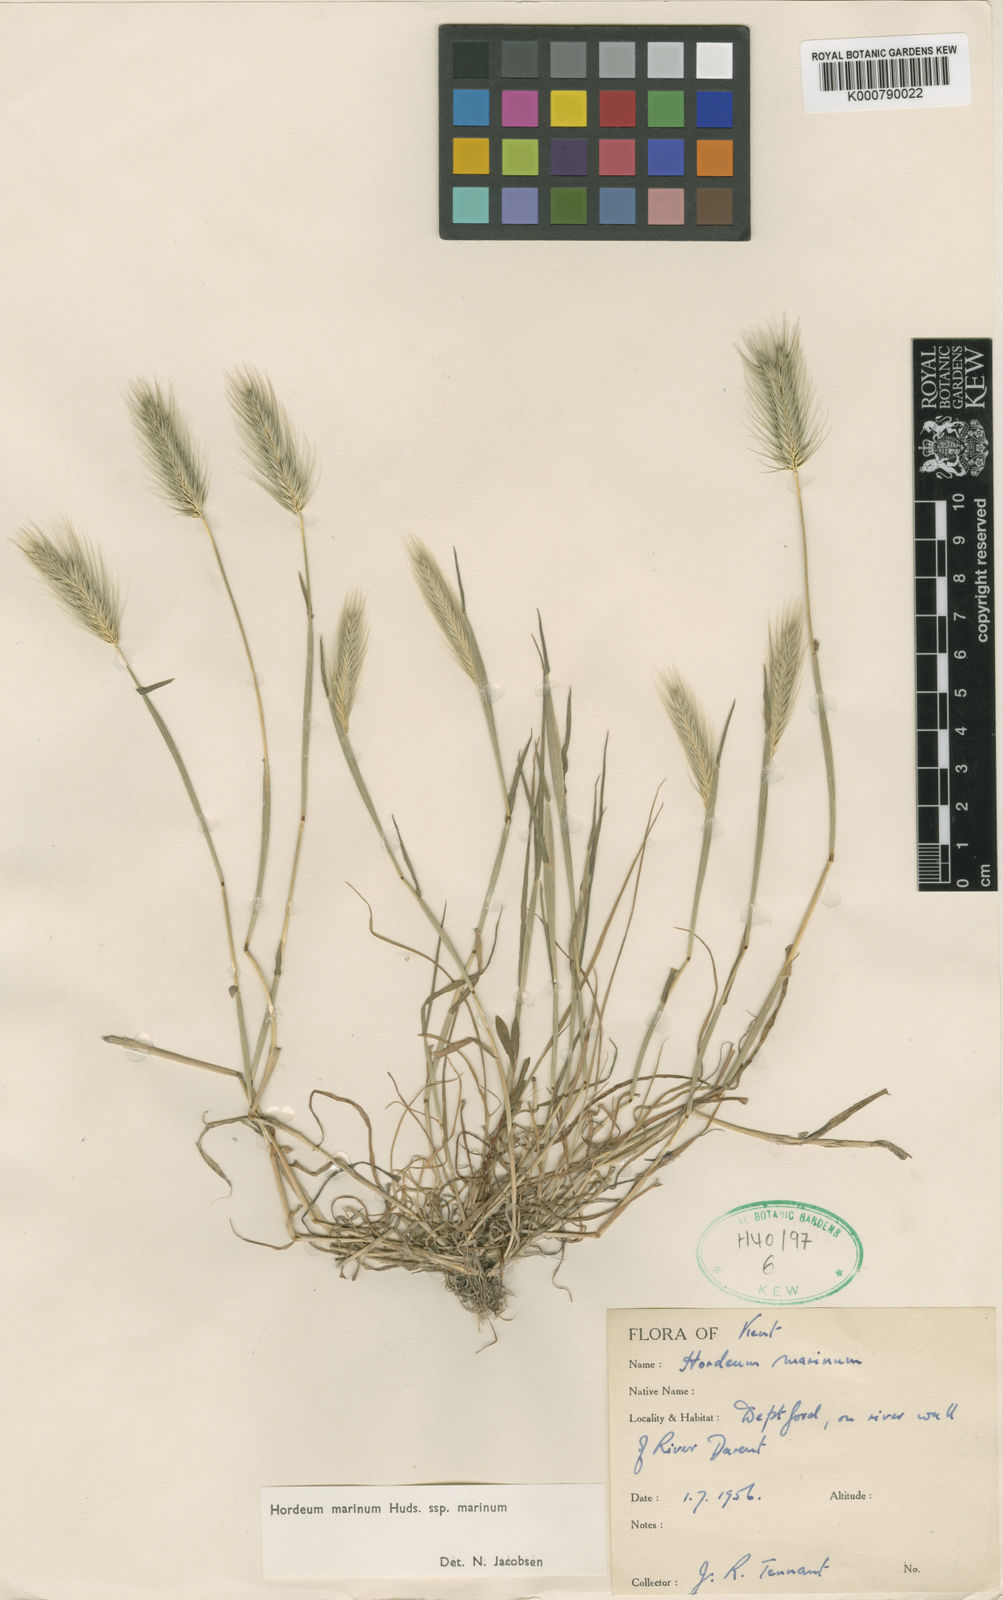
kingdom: Plantae
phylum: Tracheophyta
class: Liliopsida
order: Poales
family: Poaceae
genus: Hordeum
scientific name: Hordeum marinum
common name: Sea barley
